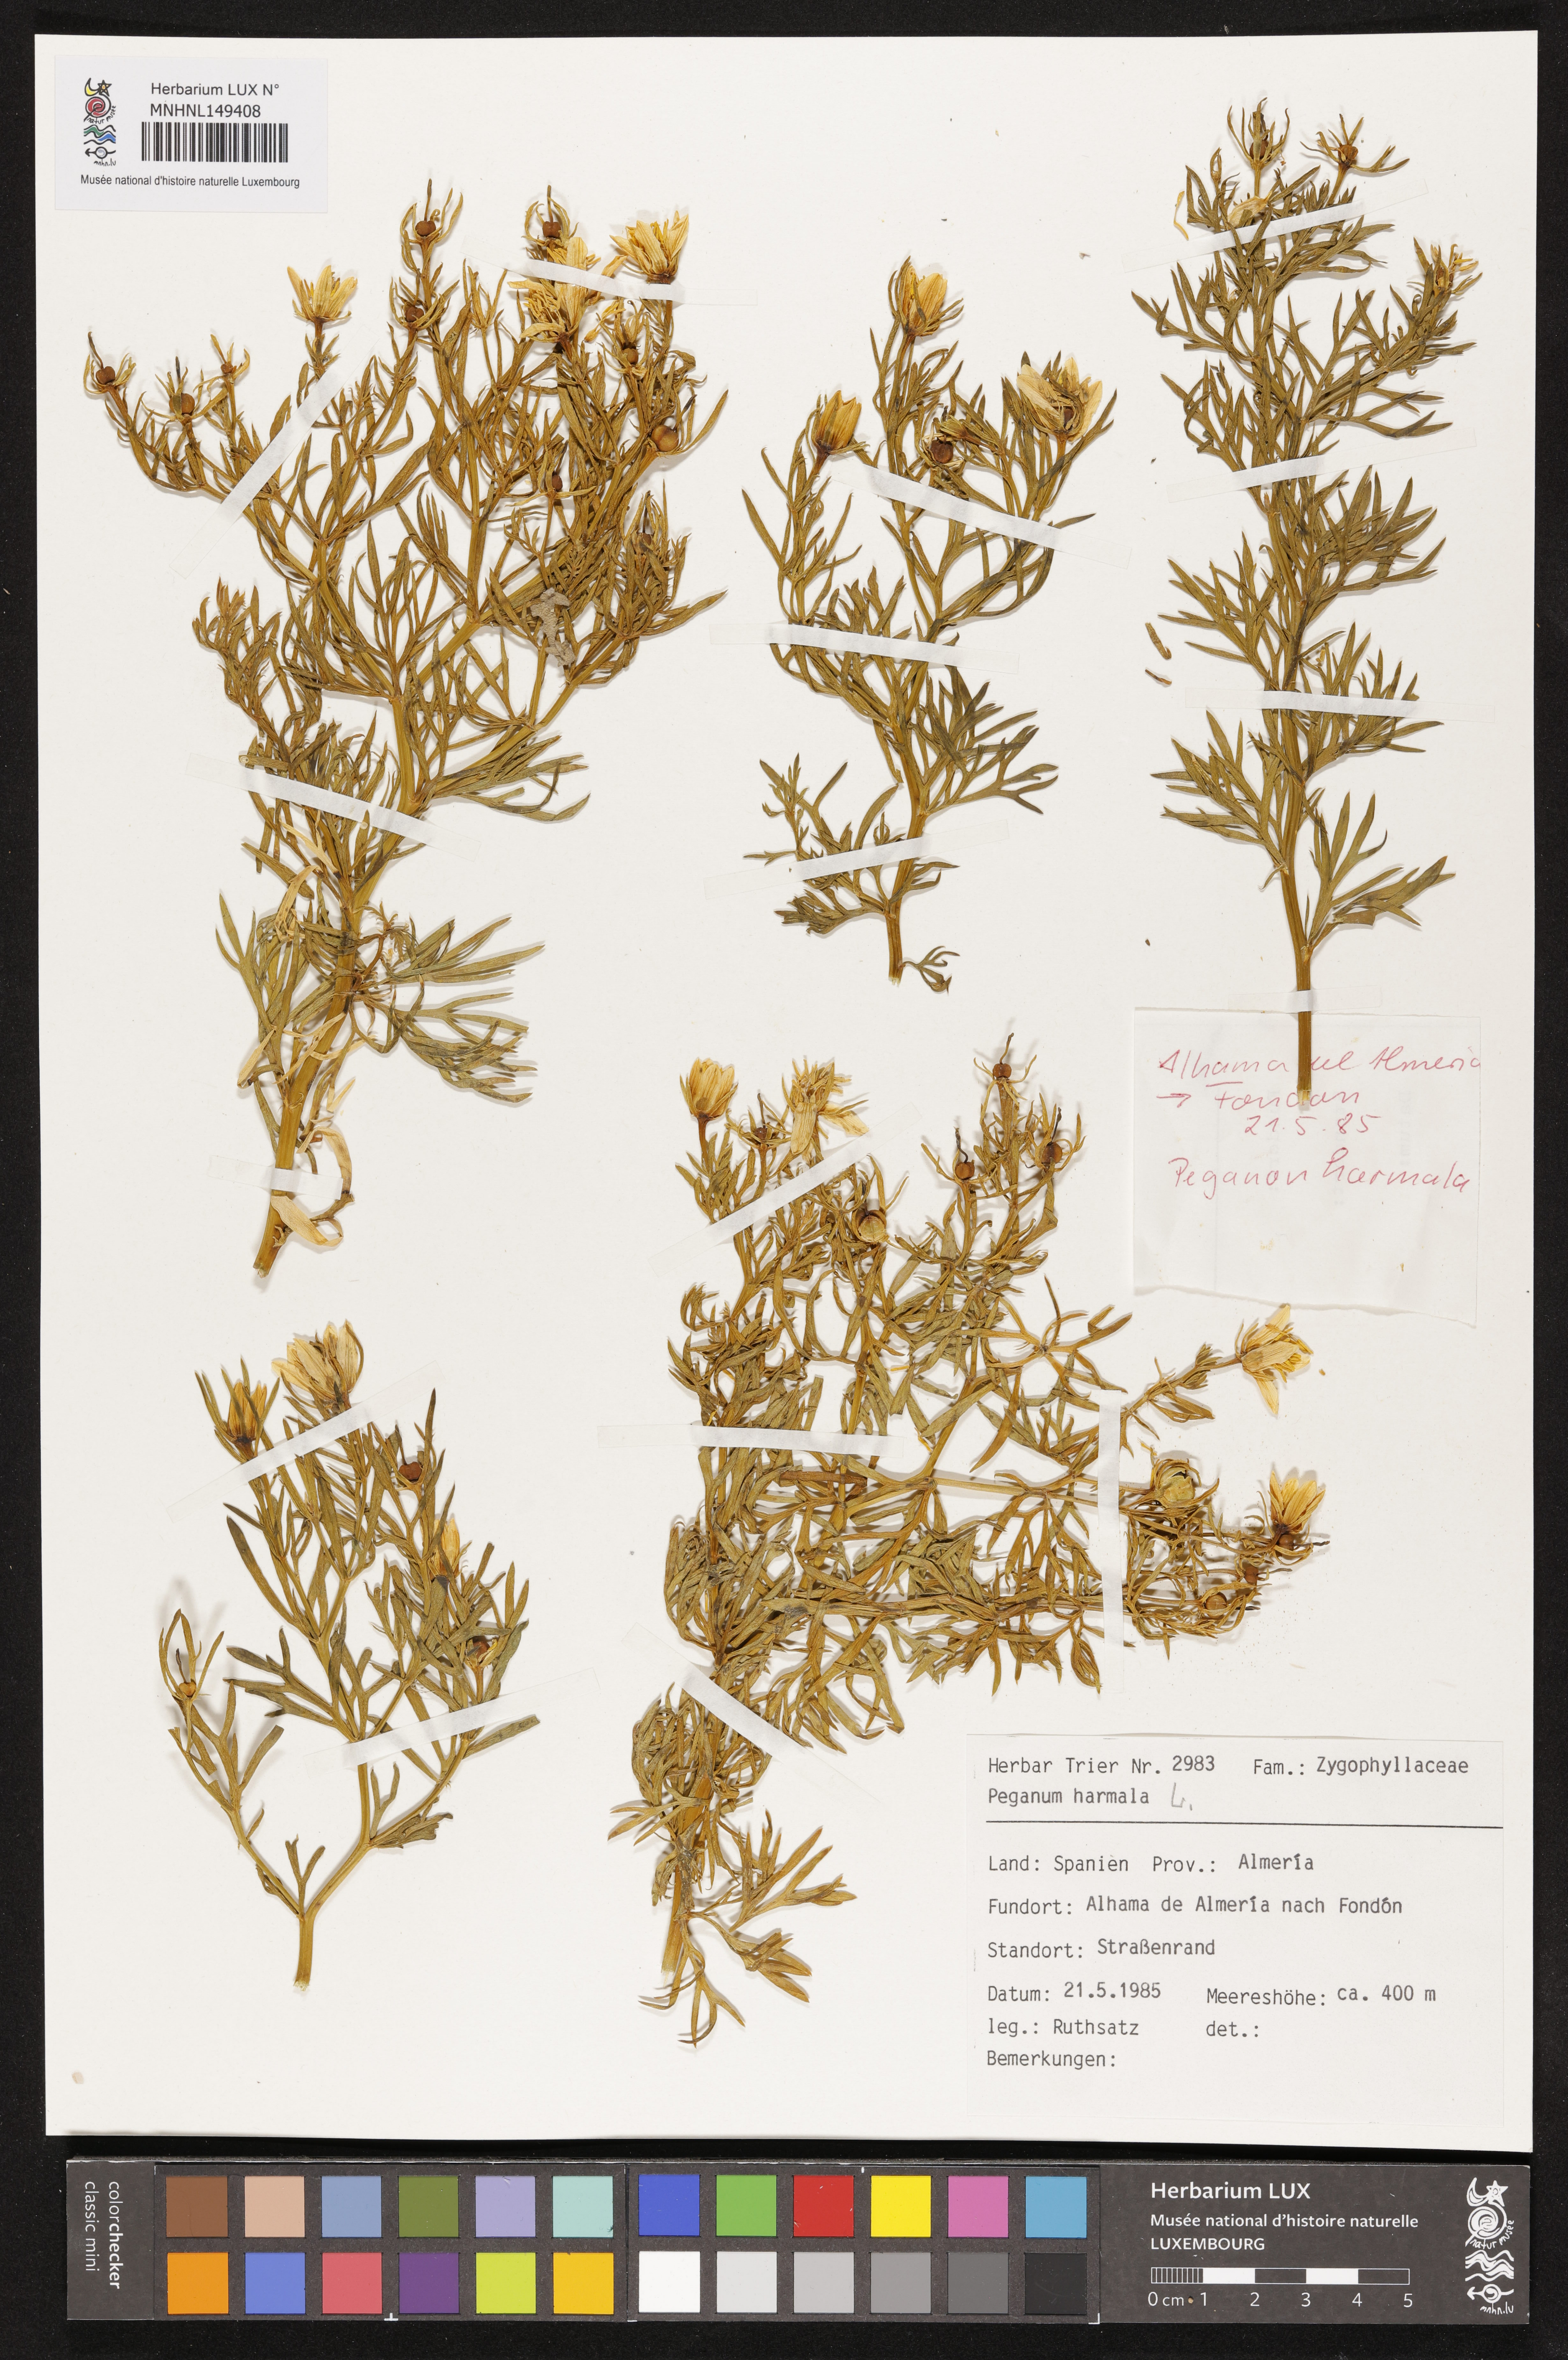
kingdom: Plantae
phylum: Tracheophyta
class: Magnoliopsida
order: Sapindales
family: Tetradiclidaceae
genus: Peganum
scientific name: Peganum harmala
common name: Harmal peganum
